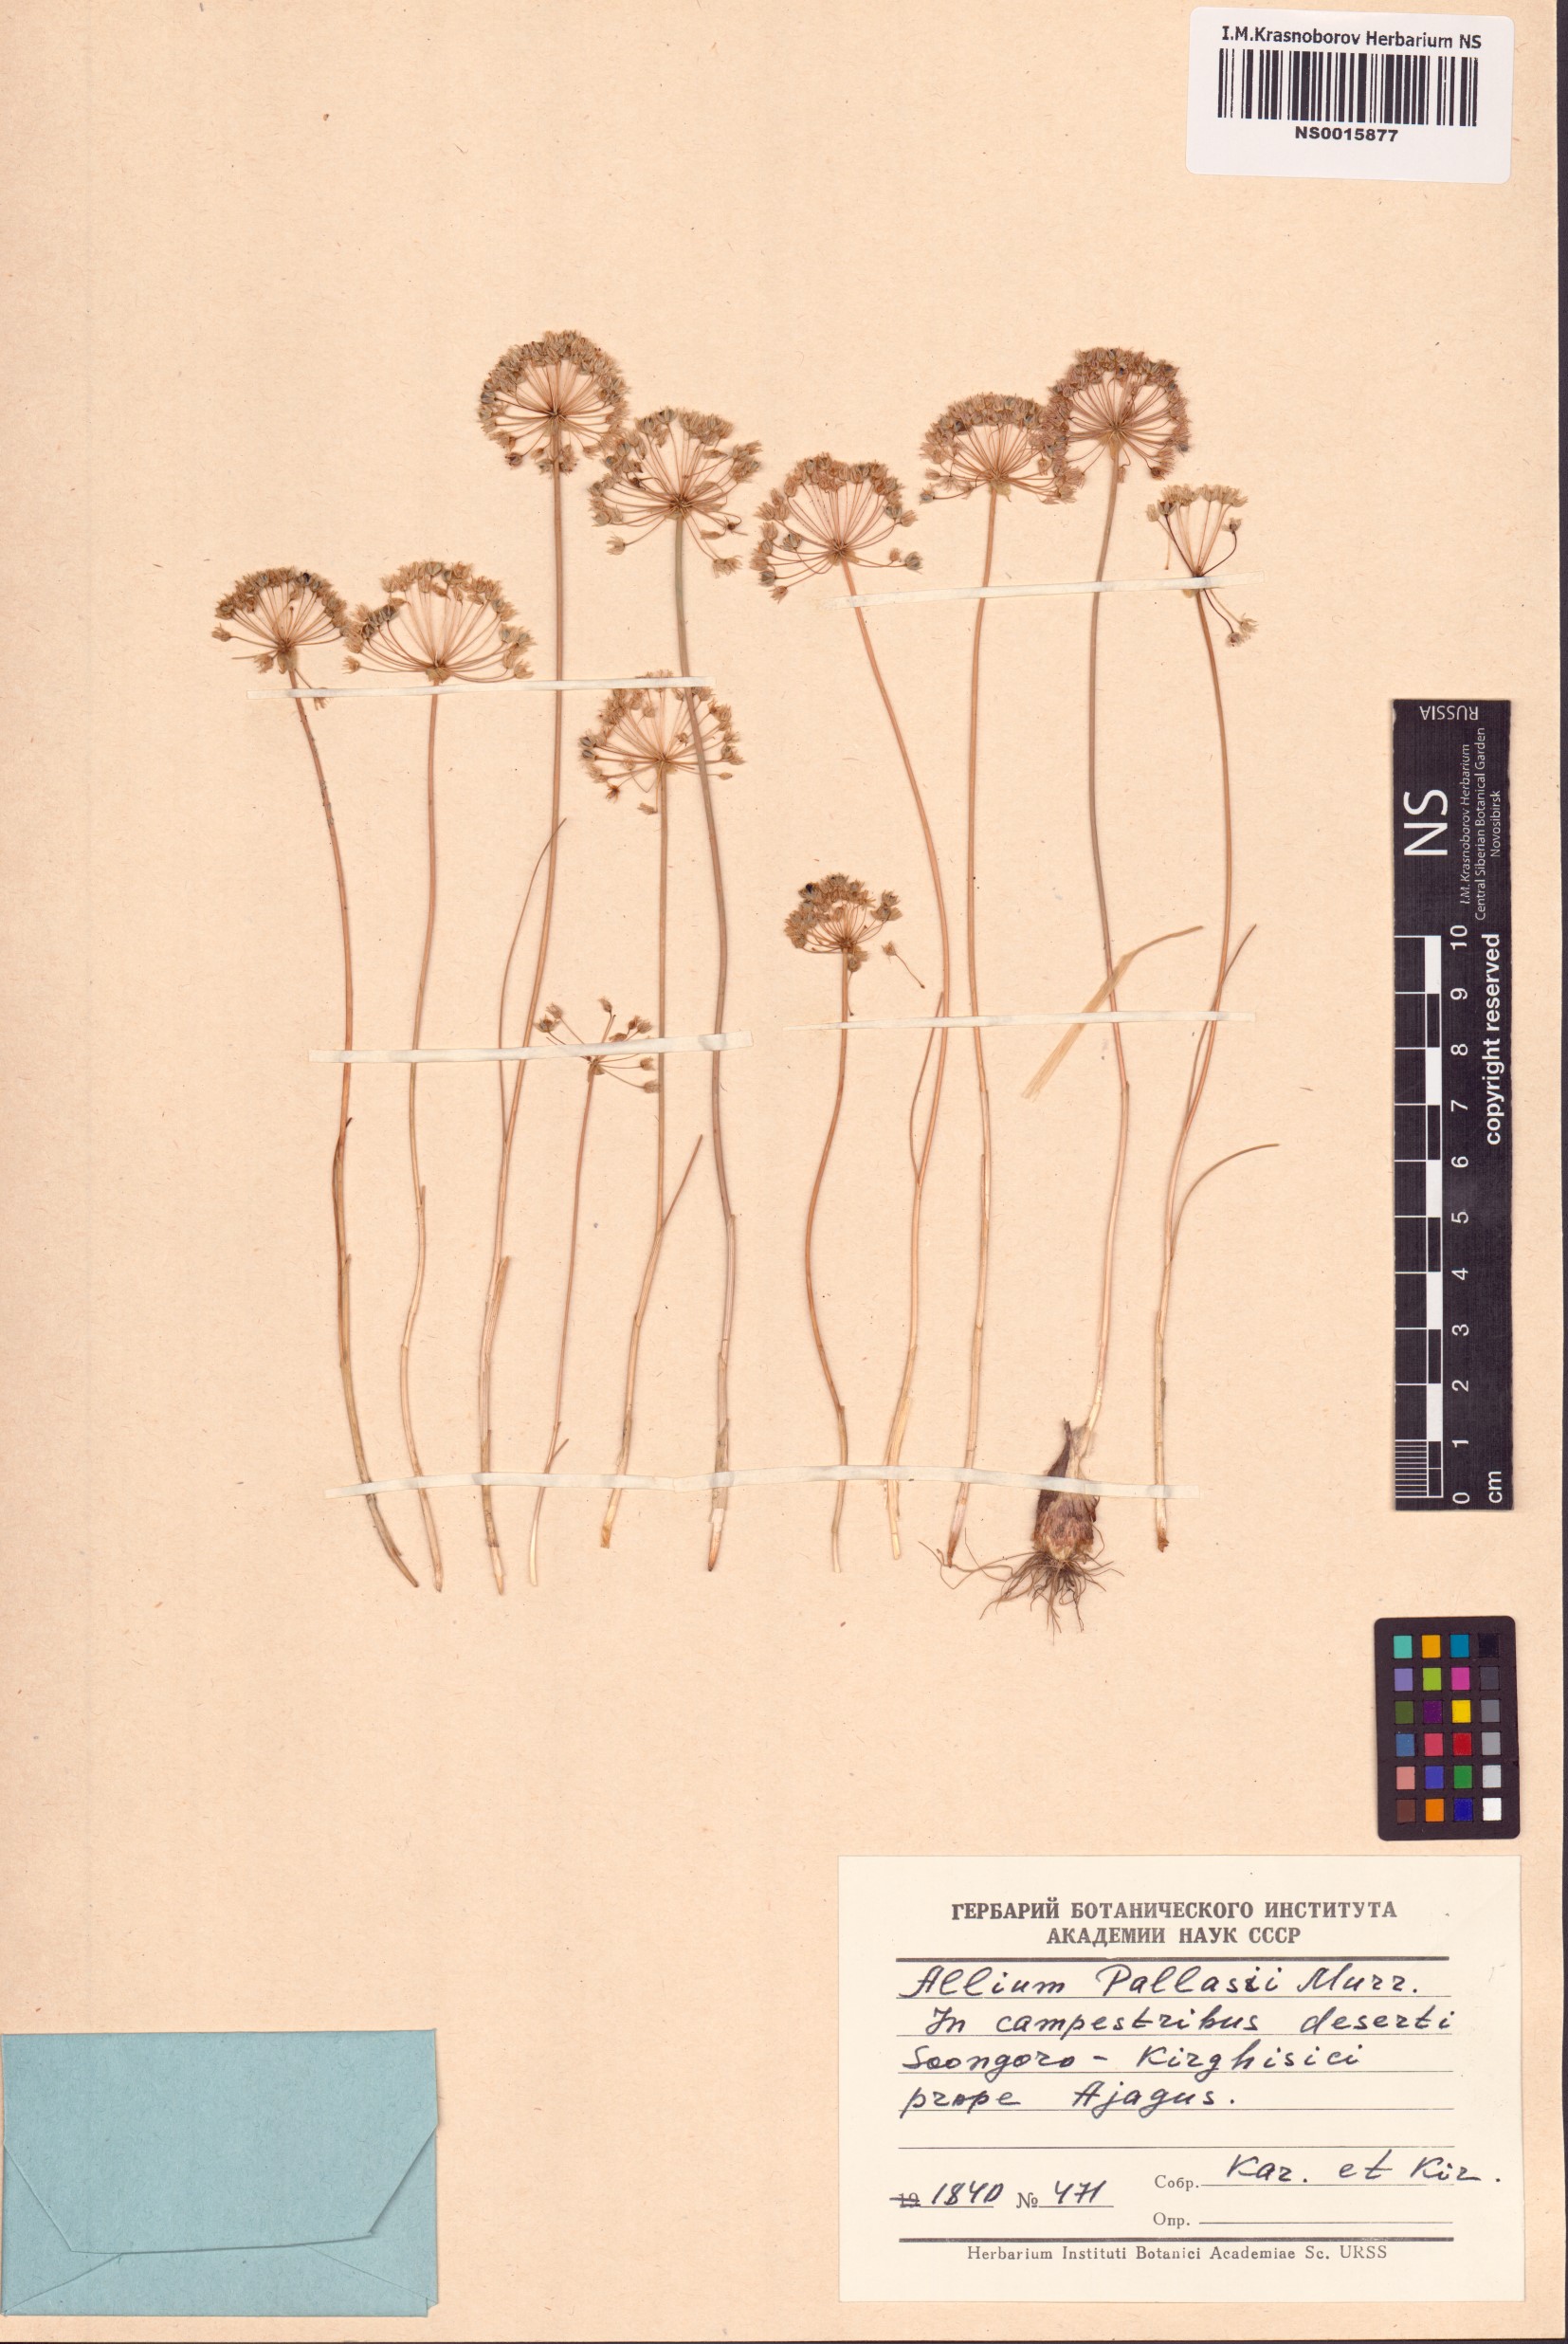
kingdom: Plantae
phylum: Tracheophyta
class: Liliopsida
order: Asparagales
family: Amaryllidaceae
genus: Allium
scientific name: Allium pallasii
